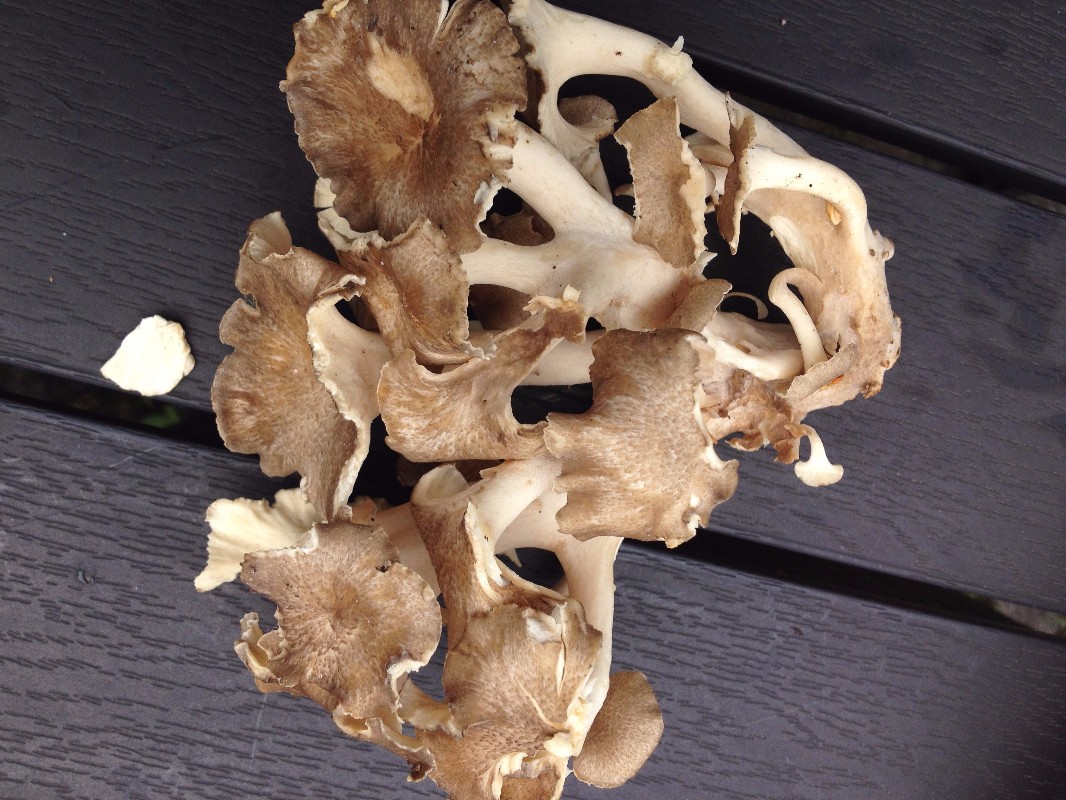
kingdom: Fungi
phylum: Basidiomycota
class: Agaricomycetes
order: Polyporales
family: Polyporaceae
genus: Polyporus
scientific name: Polyporus umbellatus
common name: skærmformet stilkporesvamp
